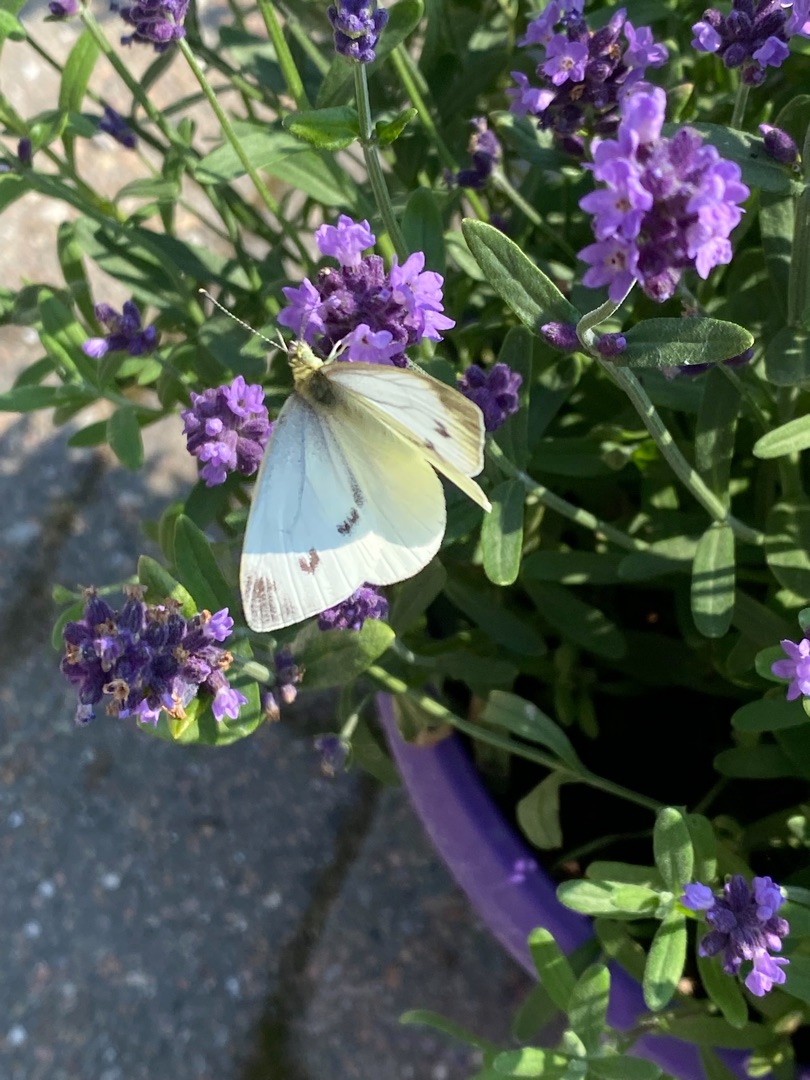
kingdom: Animalia
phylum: Arthropoda
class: Insecta
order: Lepidoptera
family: Pieridae
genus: Pieris
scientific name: Pieris rapae
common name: Lille kålsommerfugl
